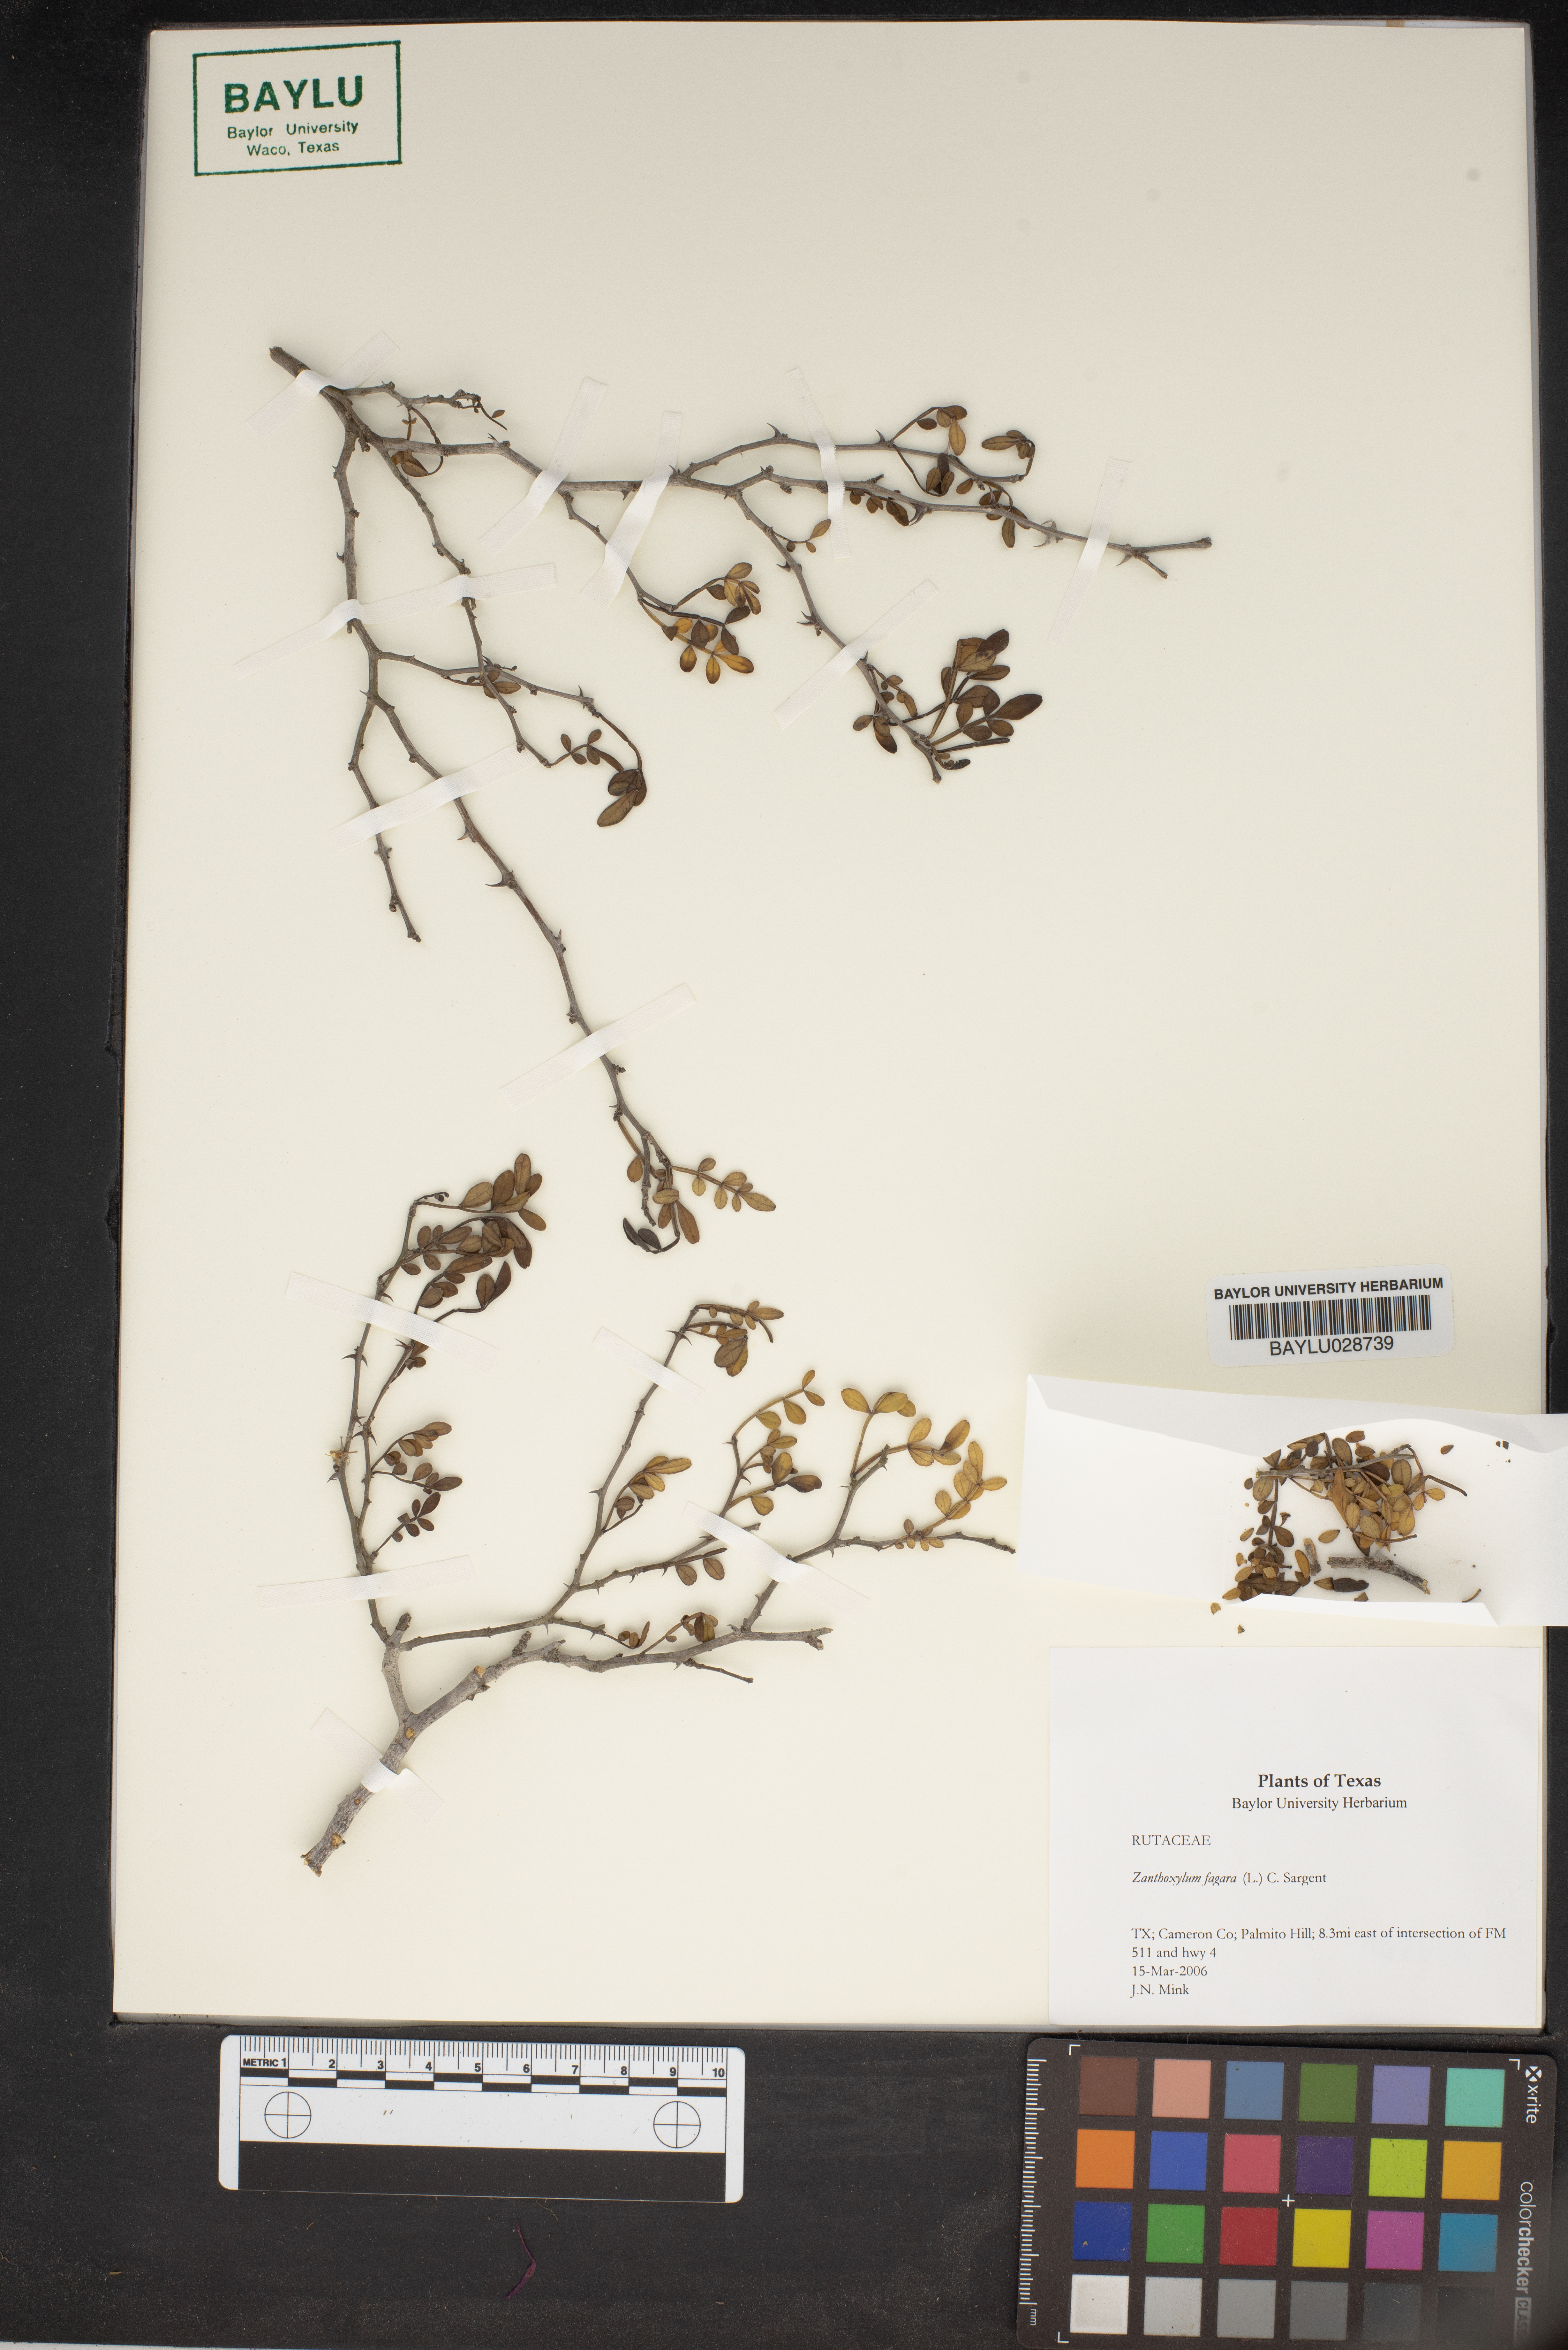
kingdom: Plantae
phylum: Tracheophyta
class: Magnoliopsida
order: Sapindales
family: Rutaceae
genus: Zanthoxylum
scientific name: Zanthoxylum fagara
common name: Lime prickly-ash
